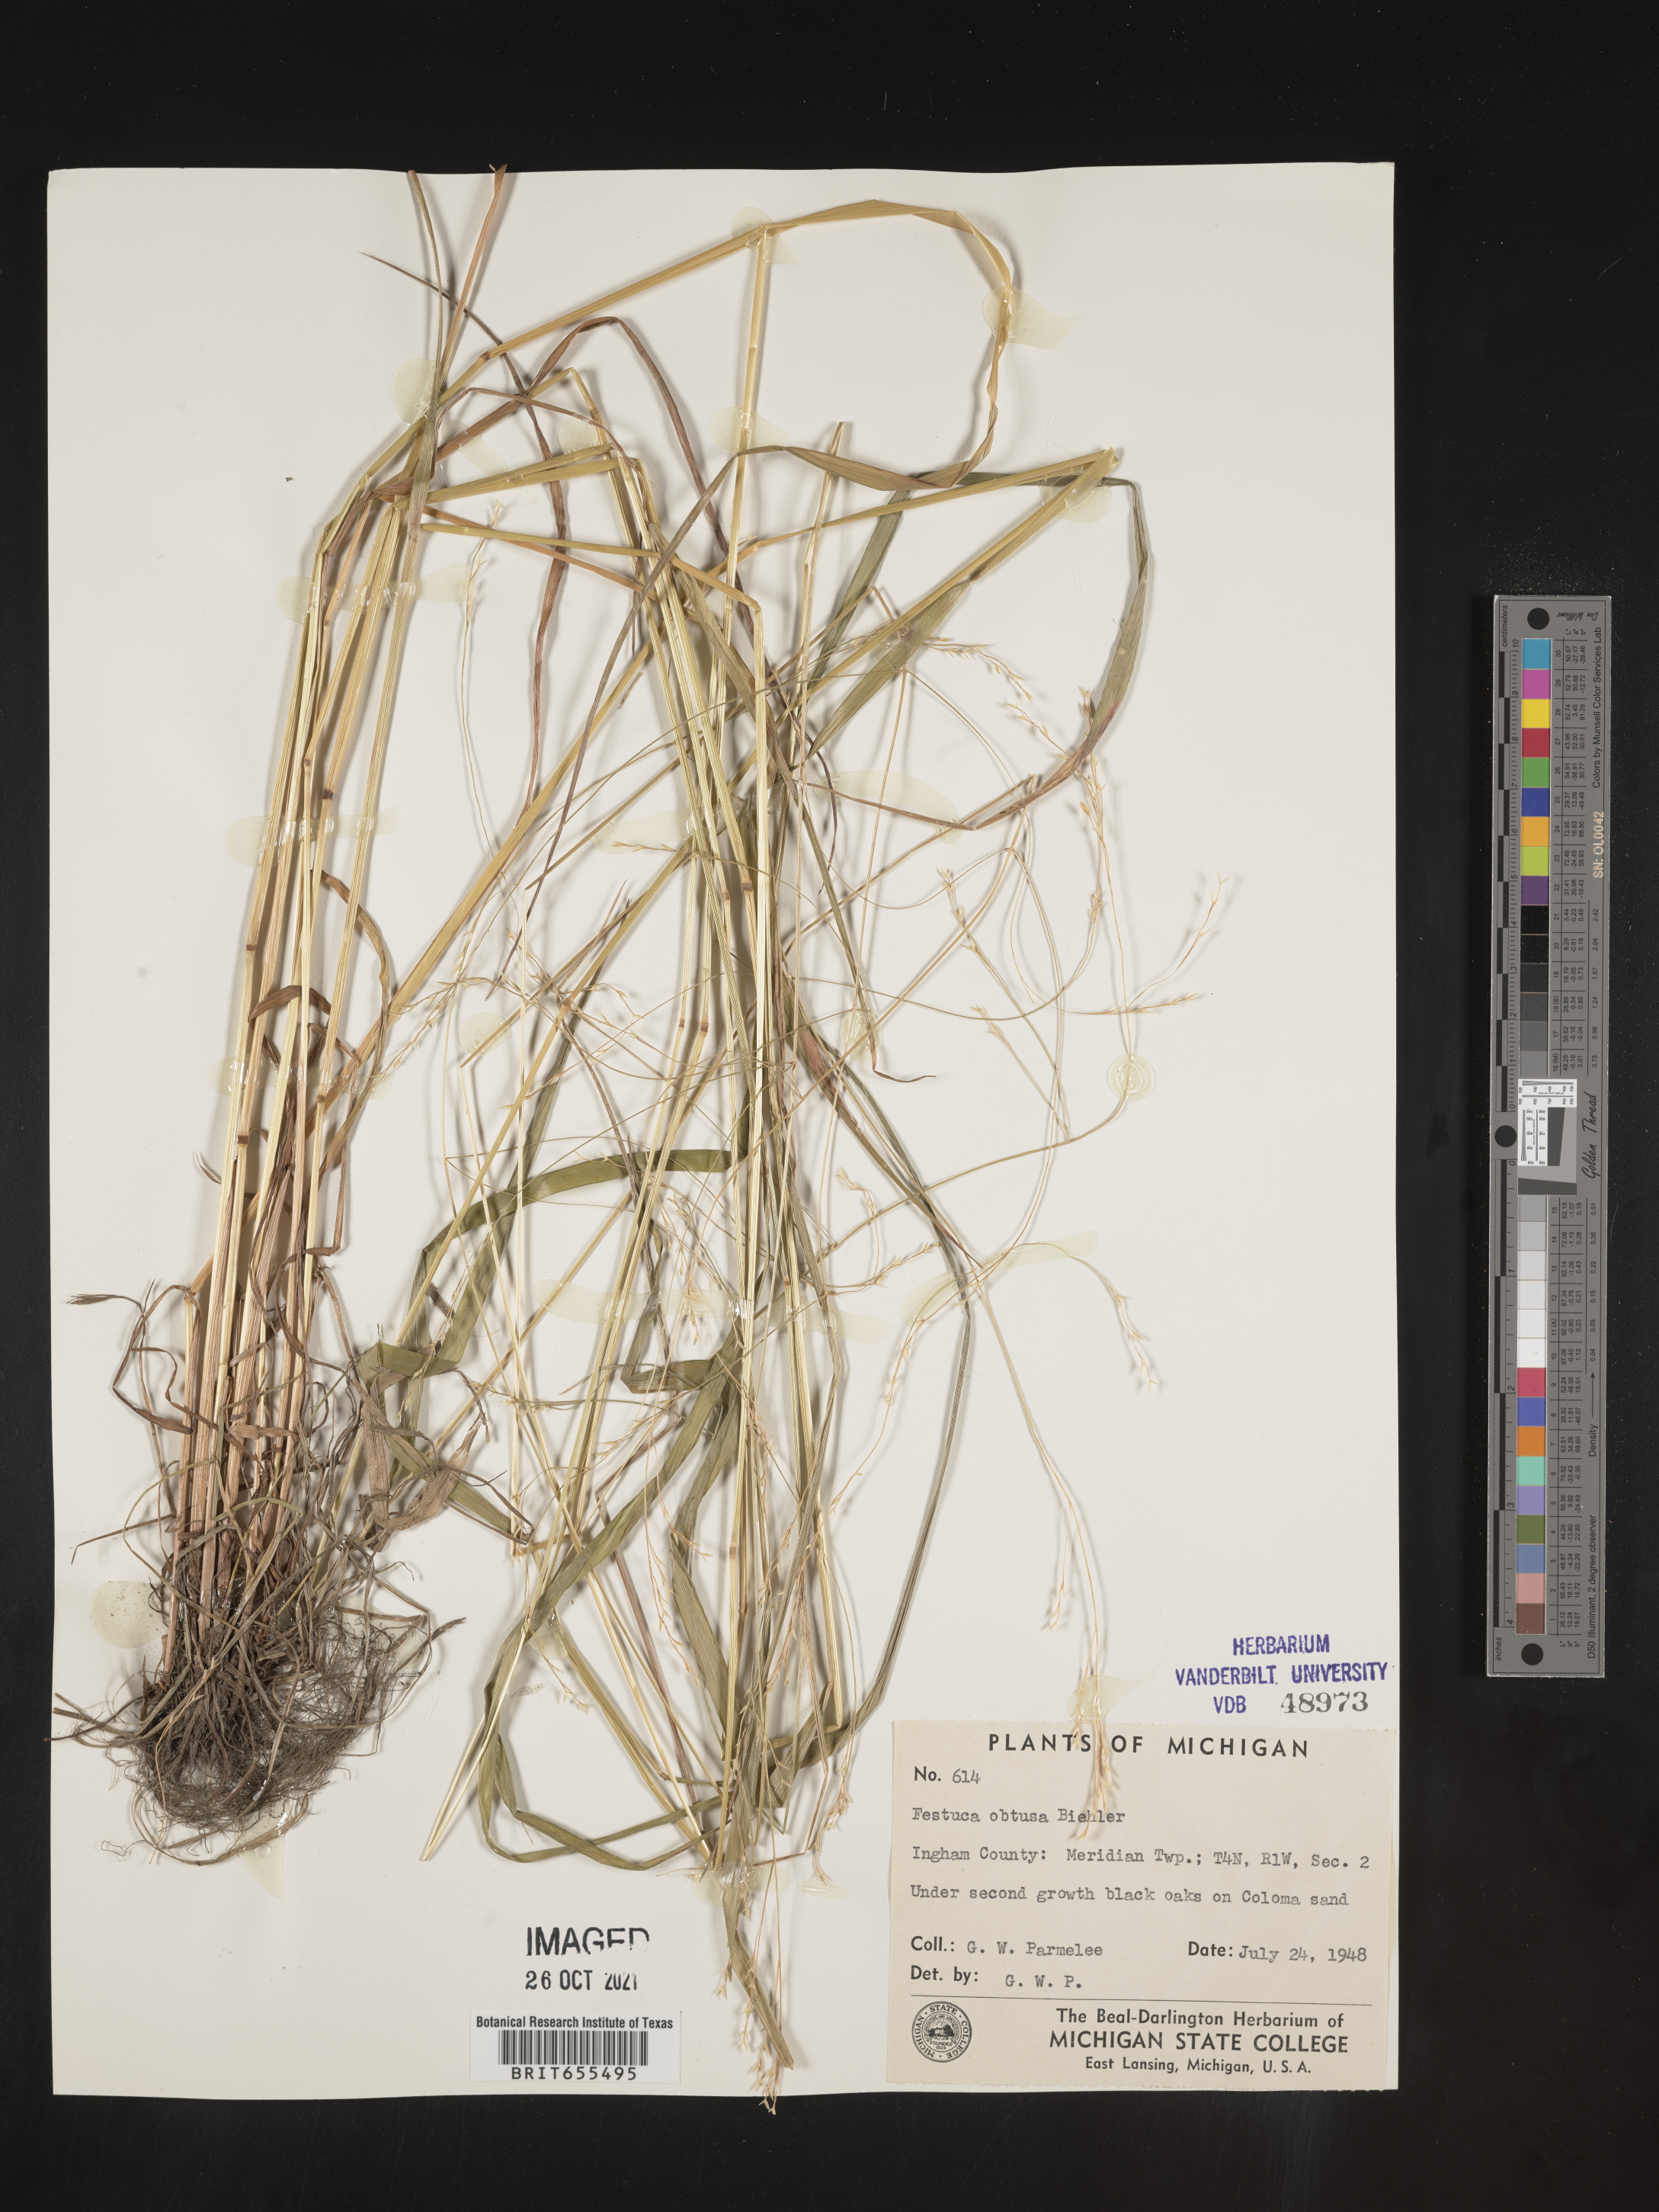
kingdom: Plantae
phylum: Tracheophyta
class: Liliopsida
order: Poales
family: Poaceae
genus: Festuca
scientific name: Festuca
